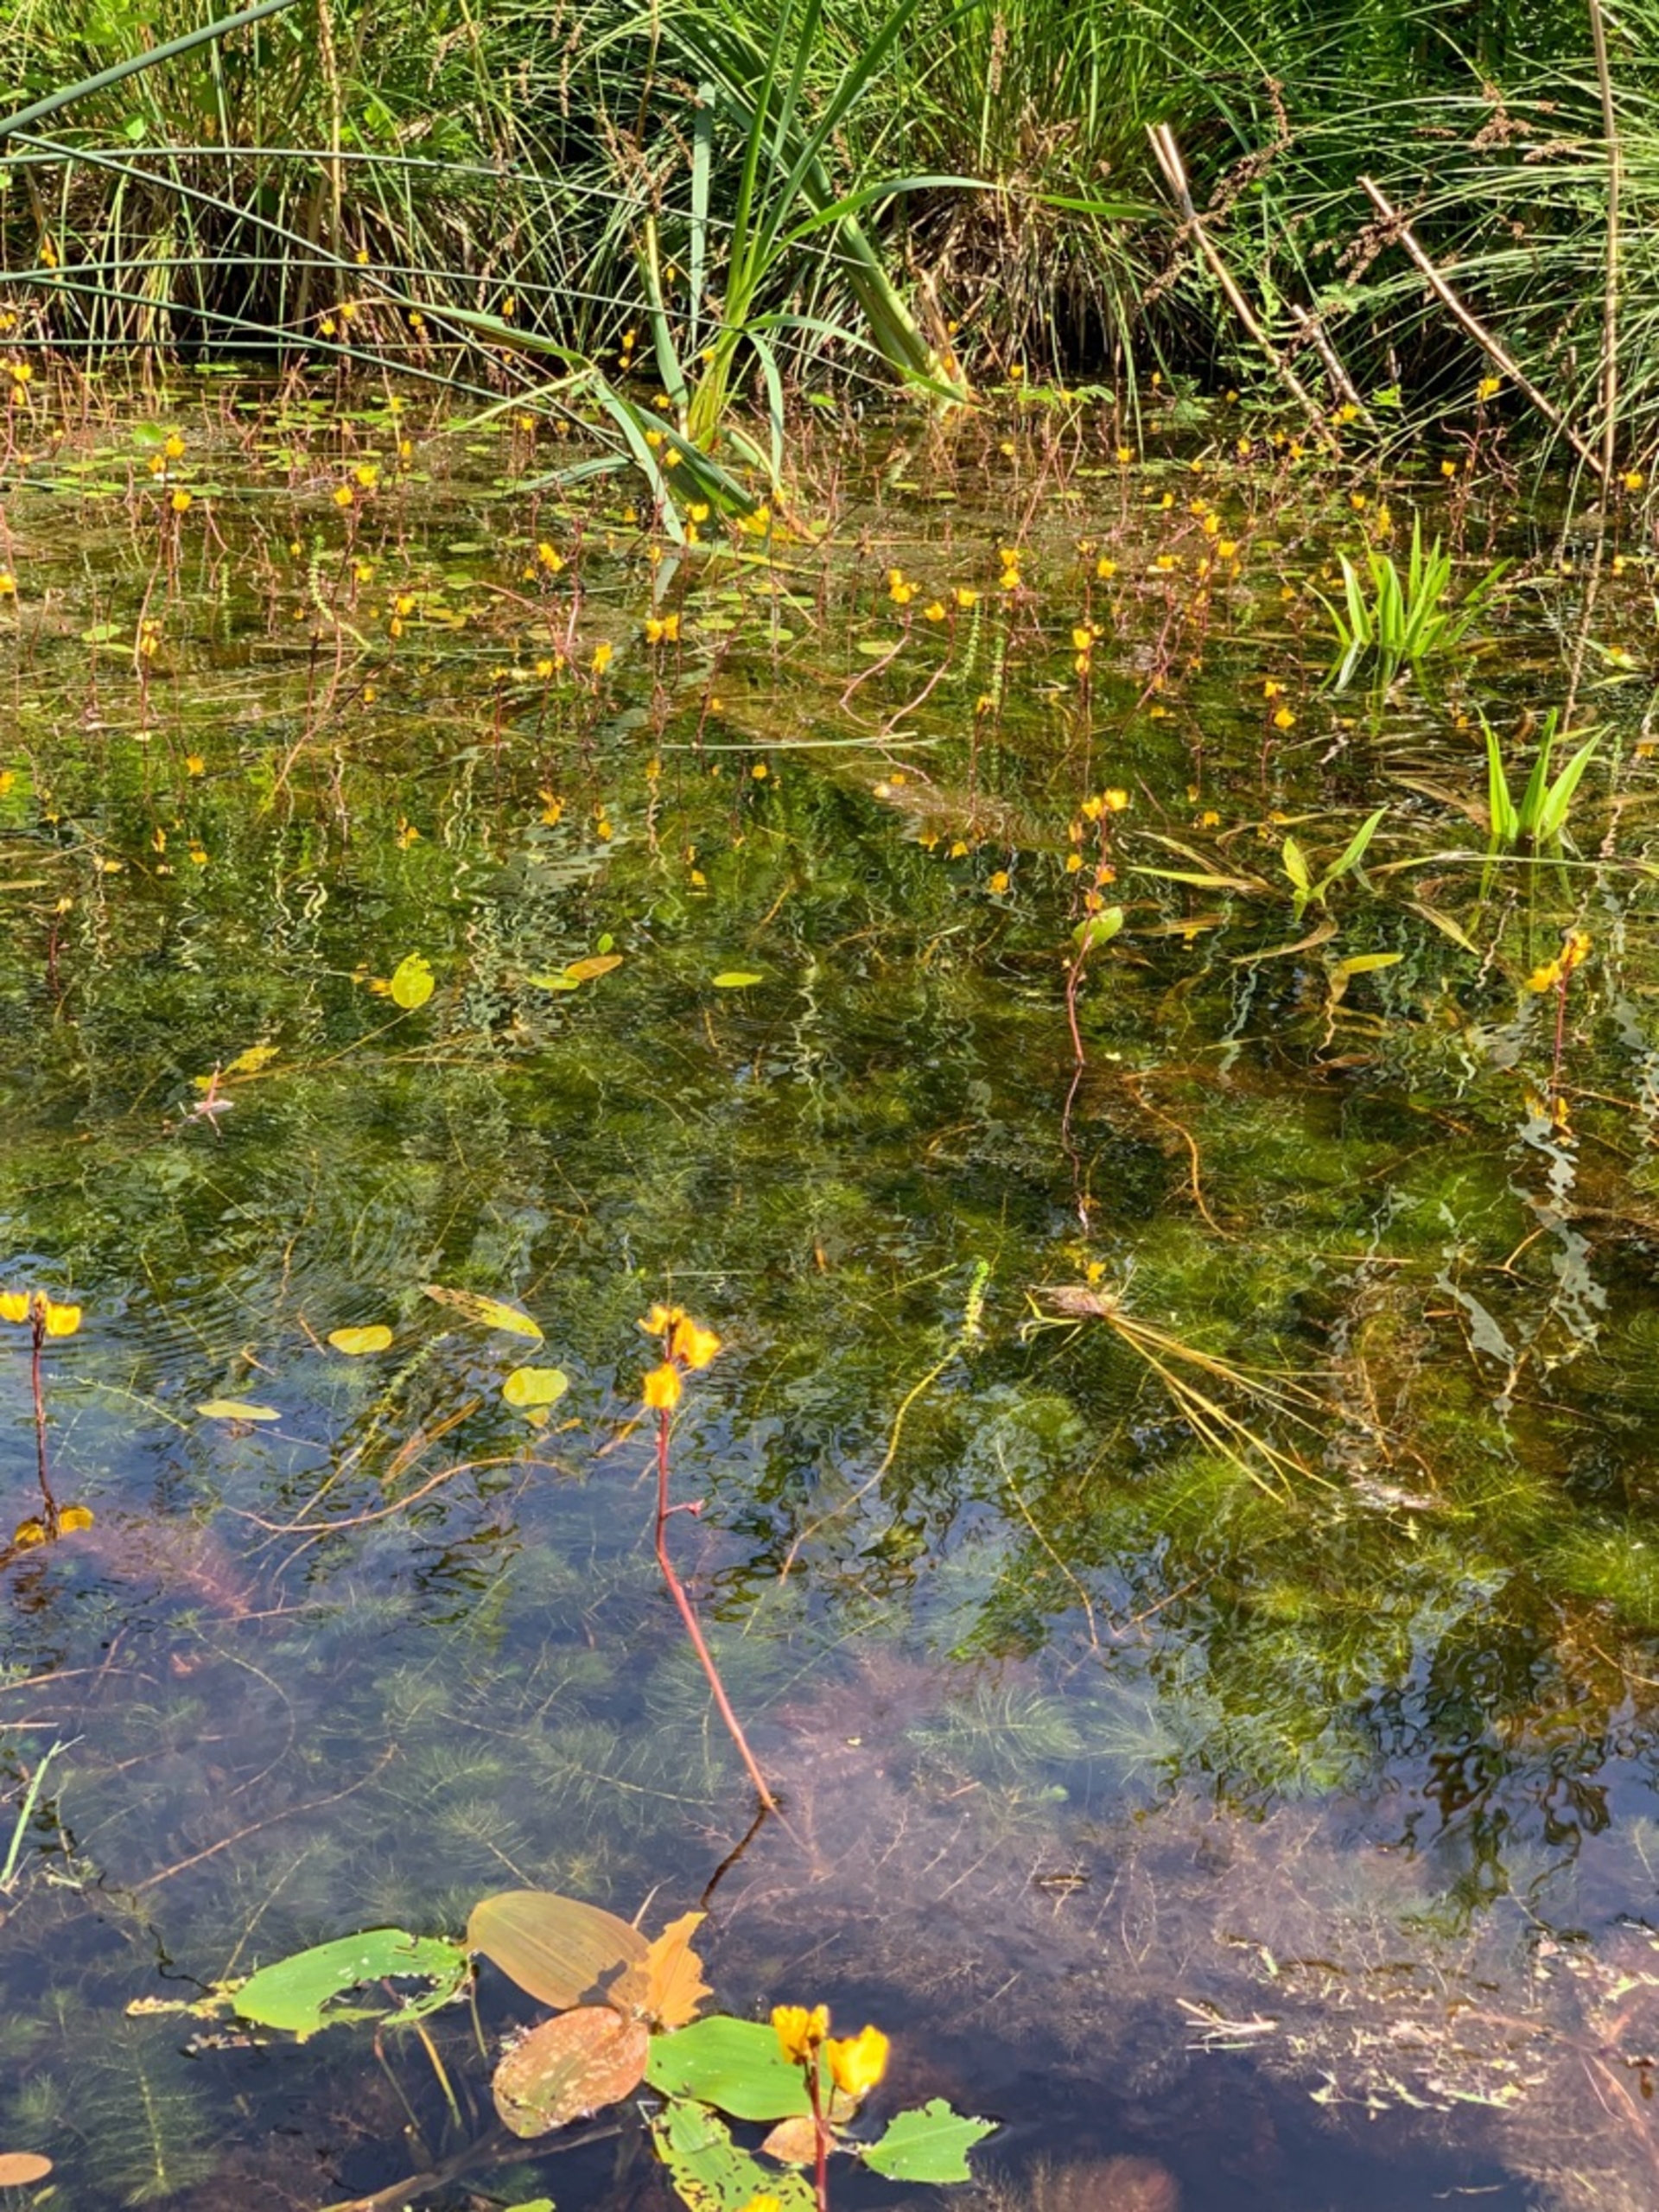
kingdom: Plantae
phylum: Tracheophyta
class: Magnoliopsida
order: Lamiales
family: Lentibulariaceae
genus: Utricularia
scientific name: Utricularia vulgaris
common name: Almindelig blærerod
